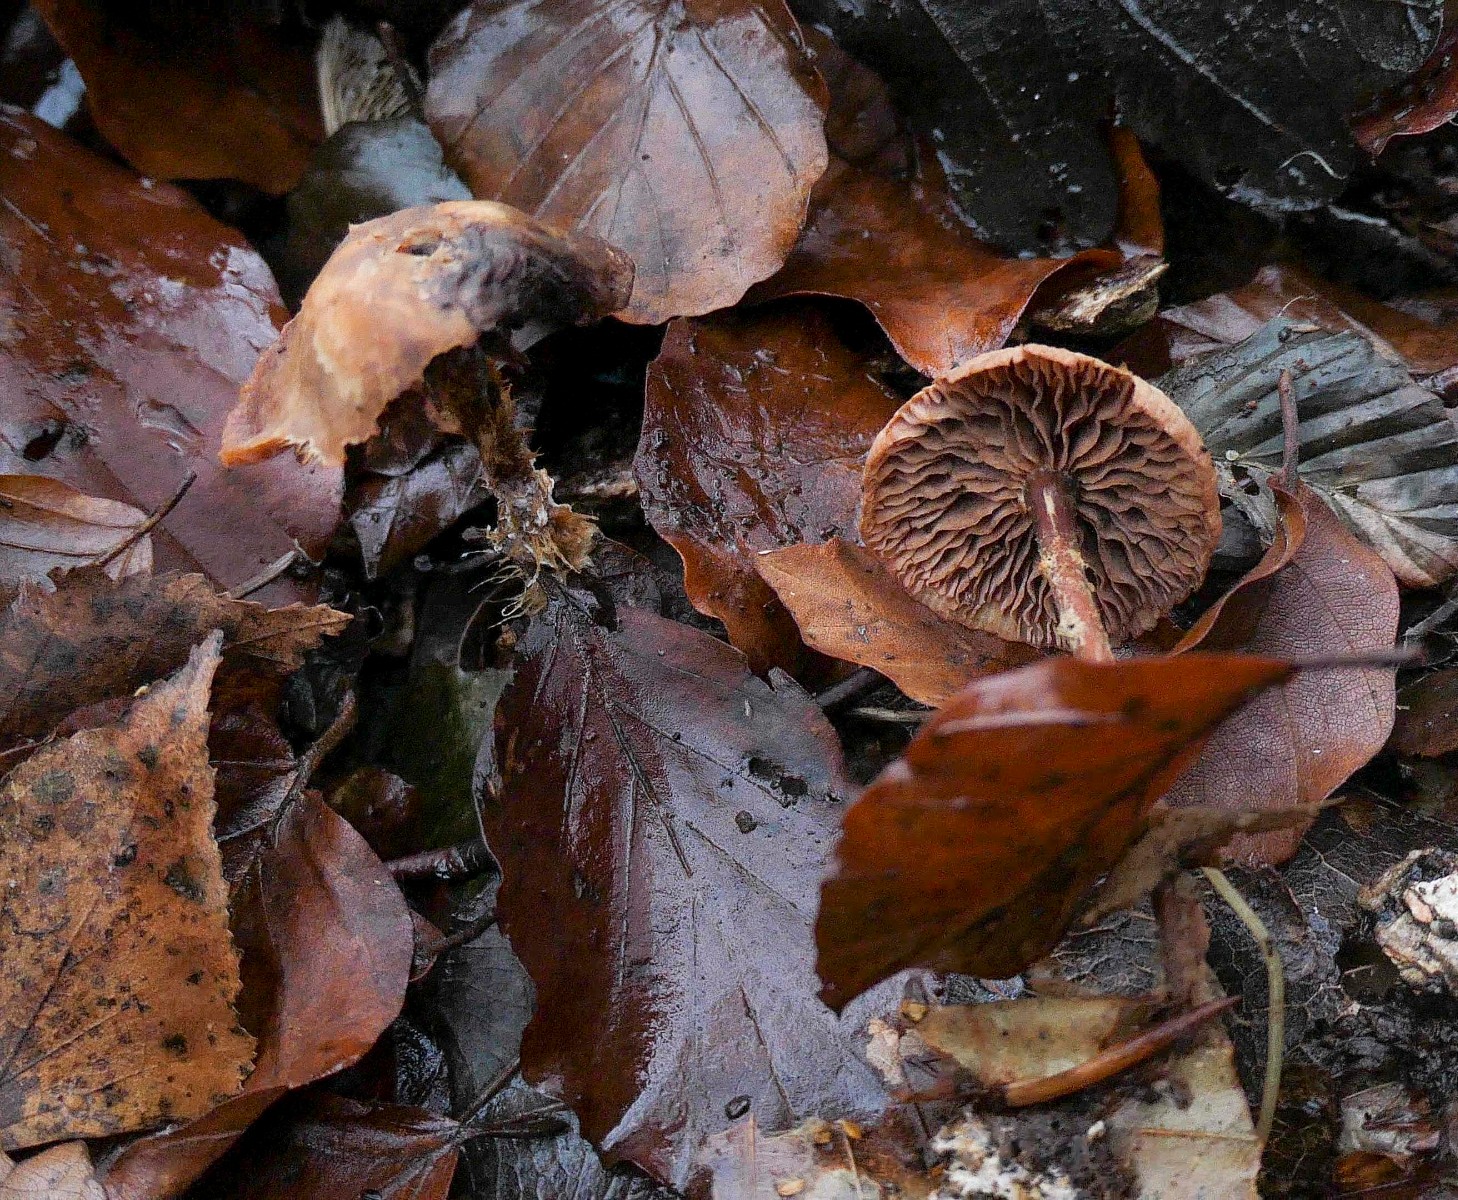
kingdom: Fungi
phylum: Basidiomycota
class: Agaricomycetes
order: Agaricales
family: Omphalotaceae
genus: Gymnopus
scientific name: Gymnopus fuscopurpureus
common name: purpurbrun fladhat
